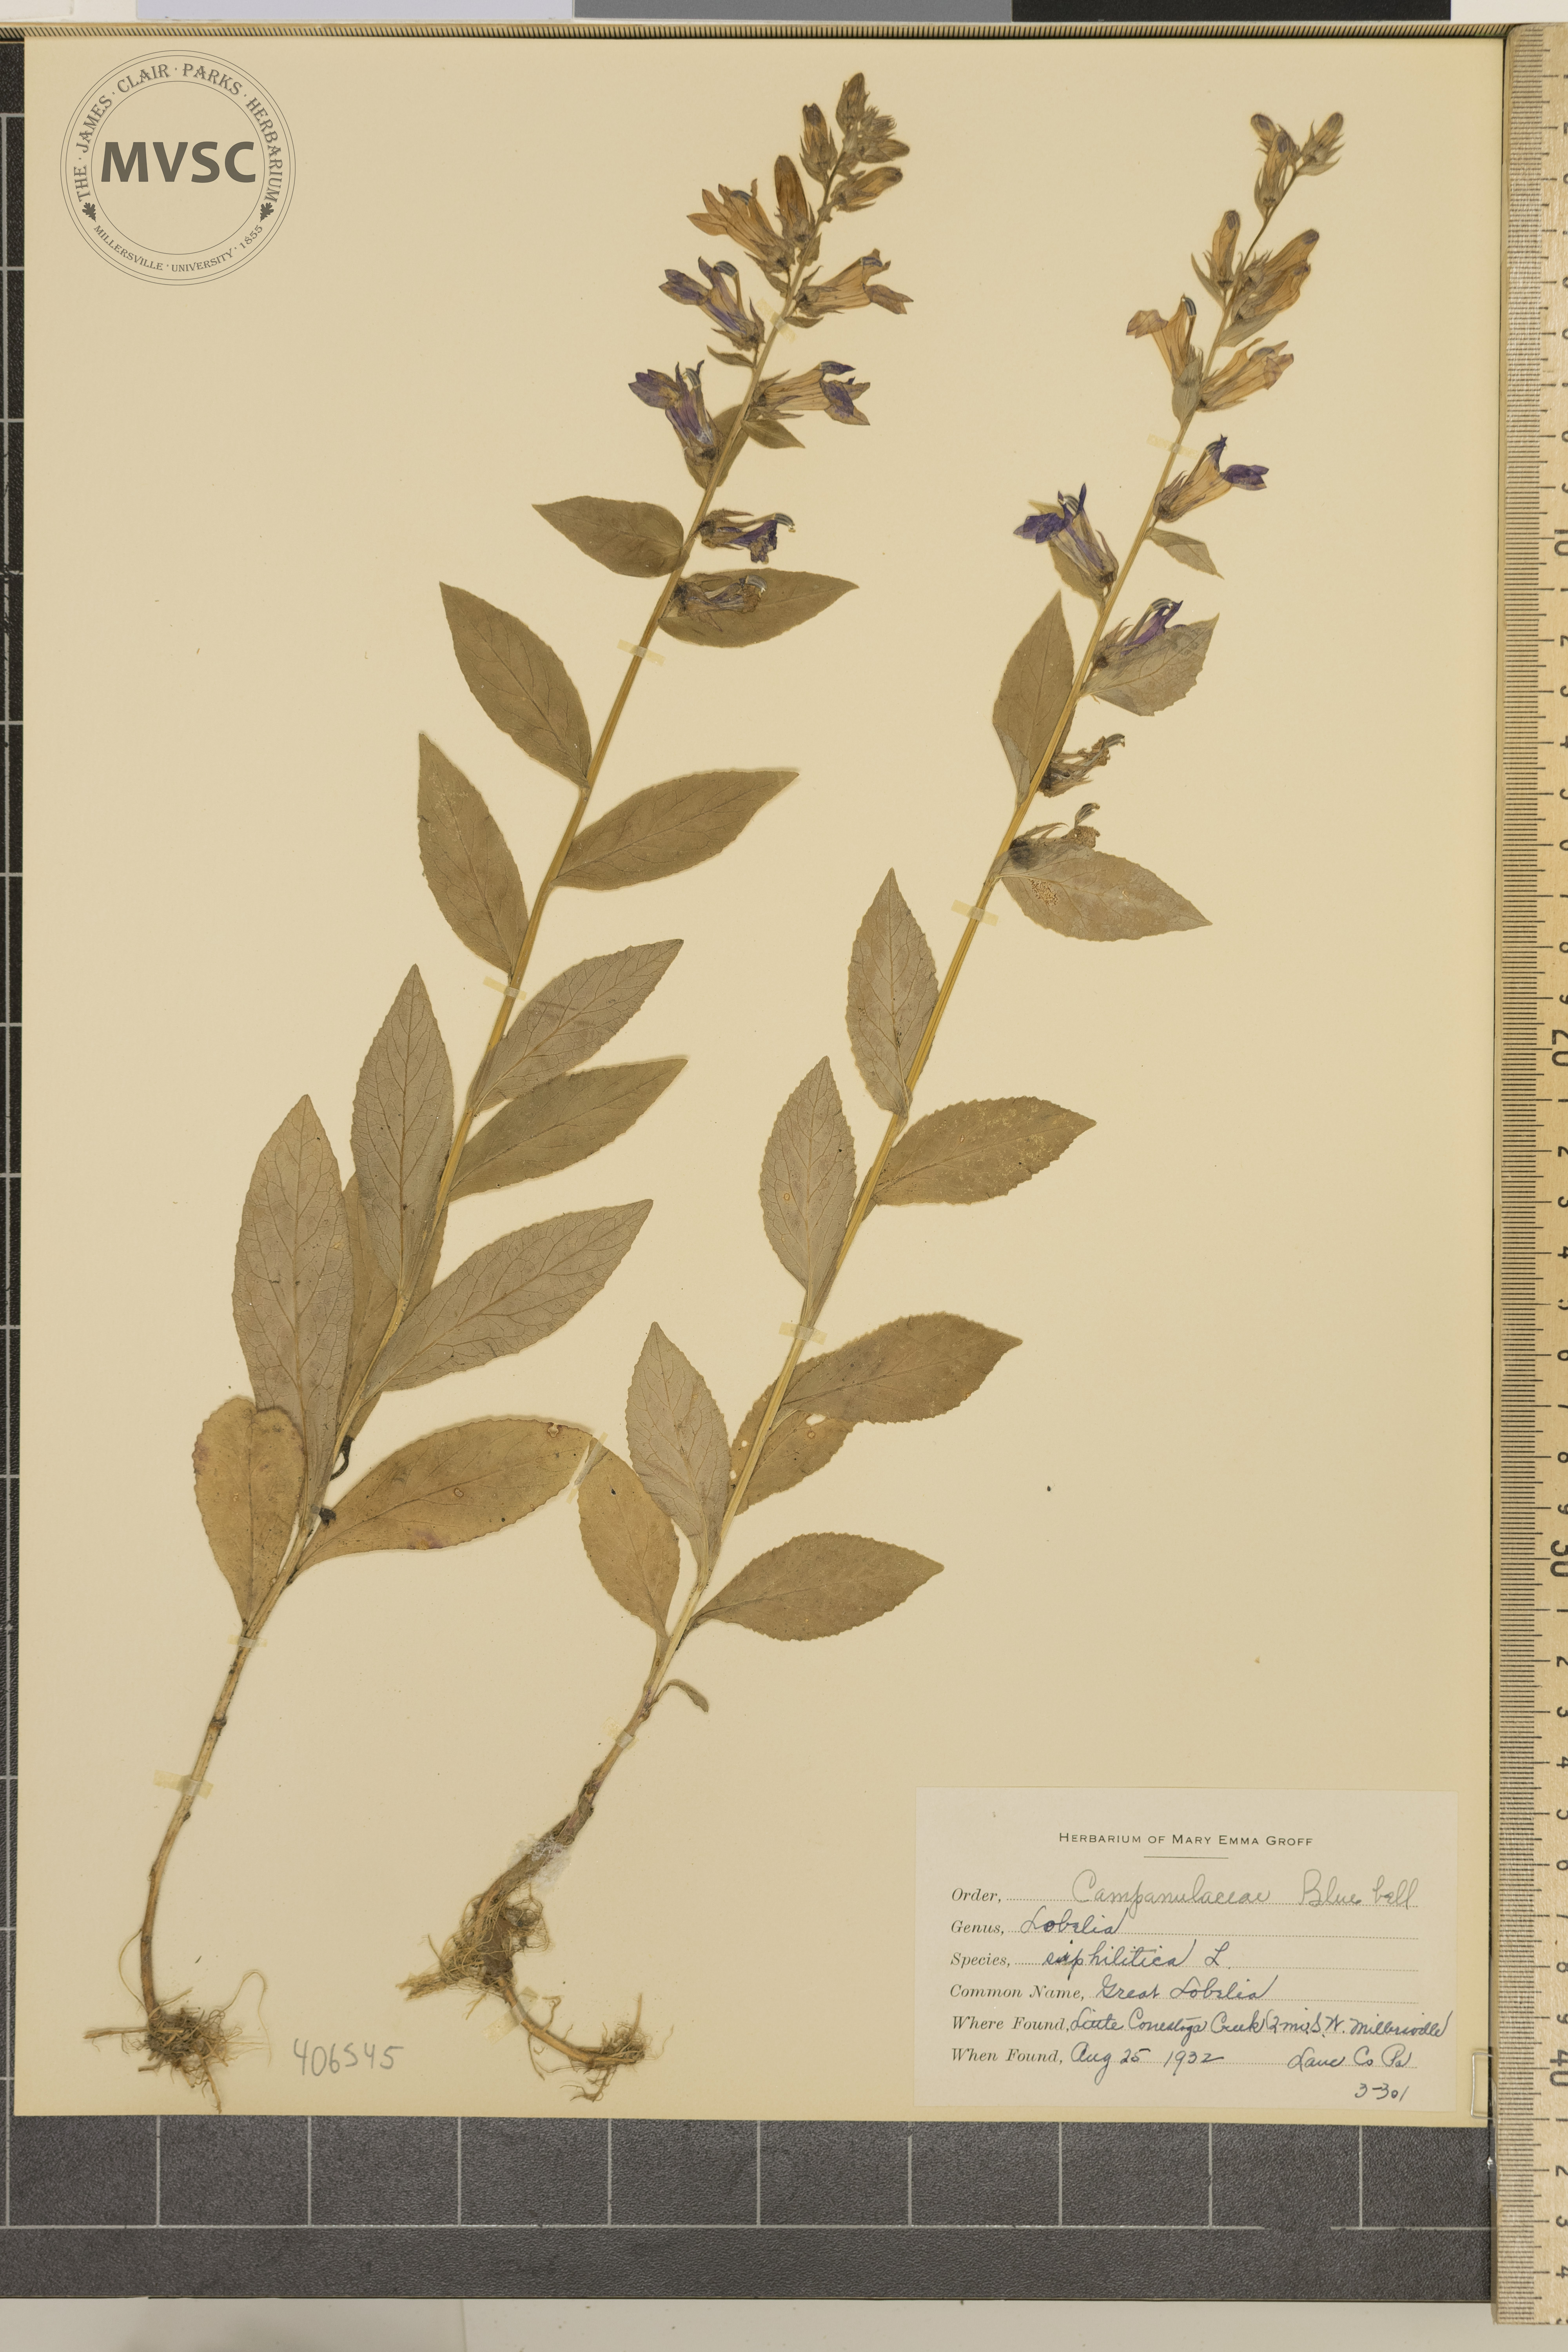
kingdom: Plantae
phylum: Tracheophyta
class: Magnoliopsida
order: Asterales
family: Campanulaceae
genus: Lobelia
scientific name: Lobelia siphilitica
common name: Great Lobelia
